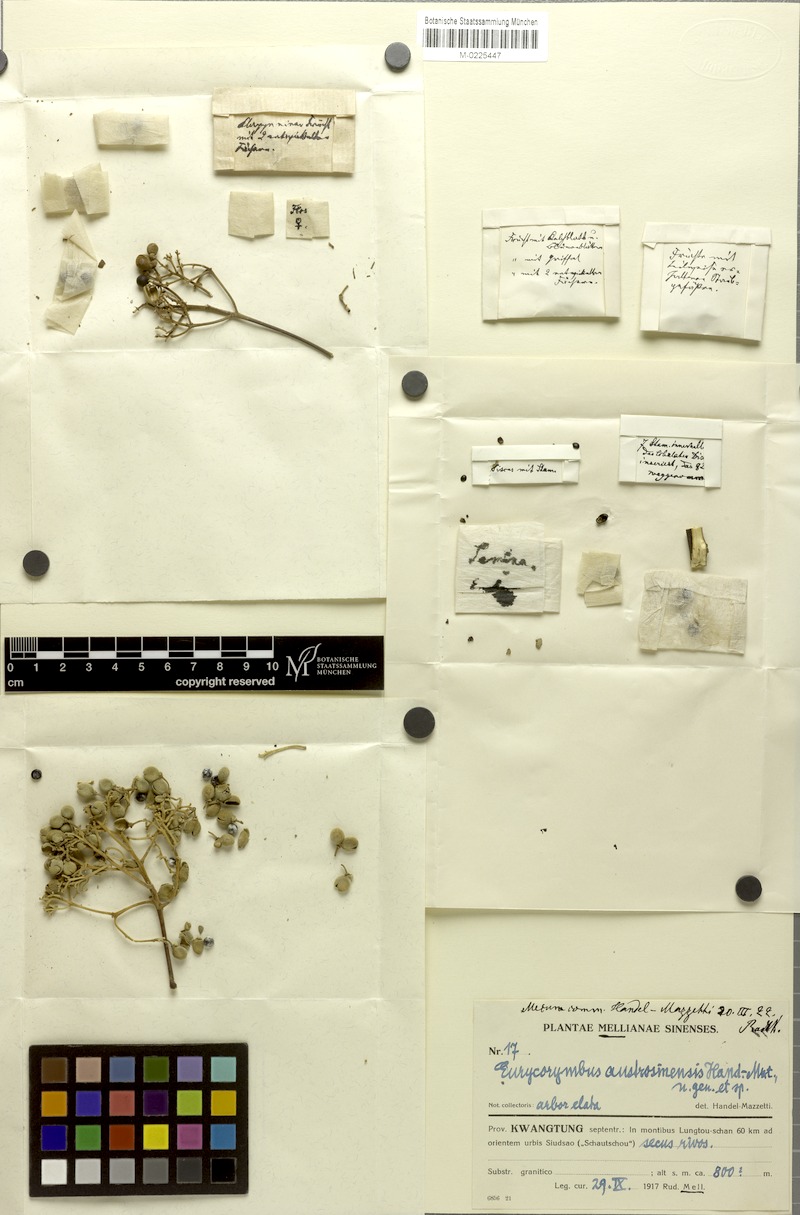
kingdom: Plantae
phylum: Tracheophyta
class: Magnoliopsida
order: Sapindales
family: Sapindaceae
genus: Eurycorymbus
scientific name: Eurycorymbus cavaleriei
